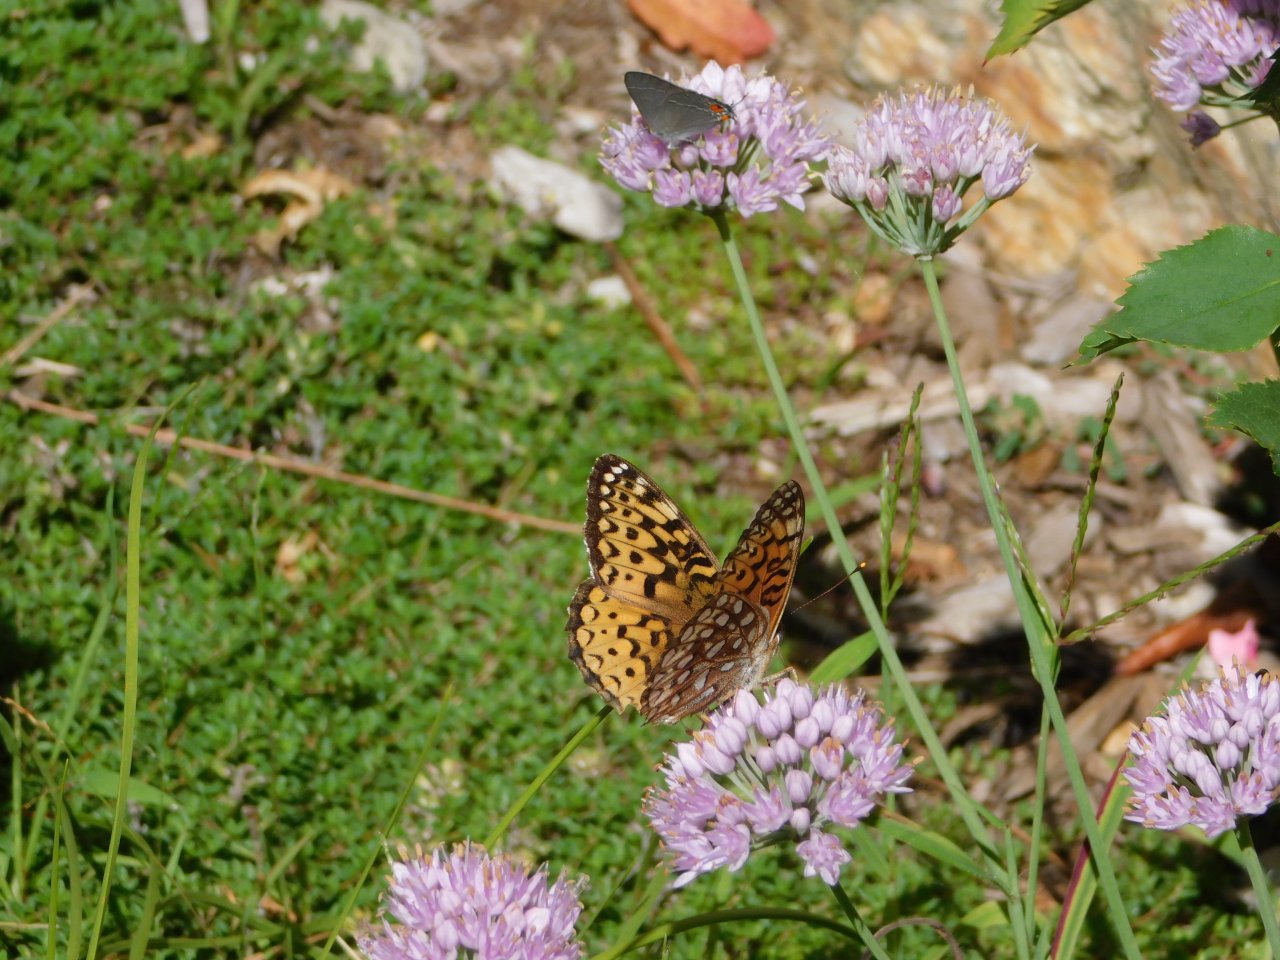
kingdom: Animalia
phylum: Arthropoda
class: Insecta
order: Lepidoptera
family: Nymphalidae
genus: Speyeria
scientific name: Speyeria atlantis
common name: Atlantis Fritillary
